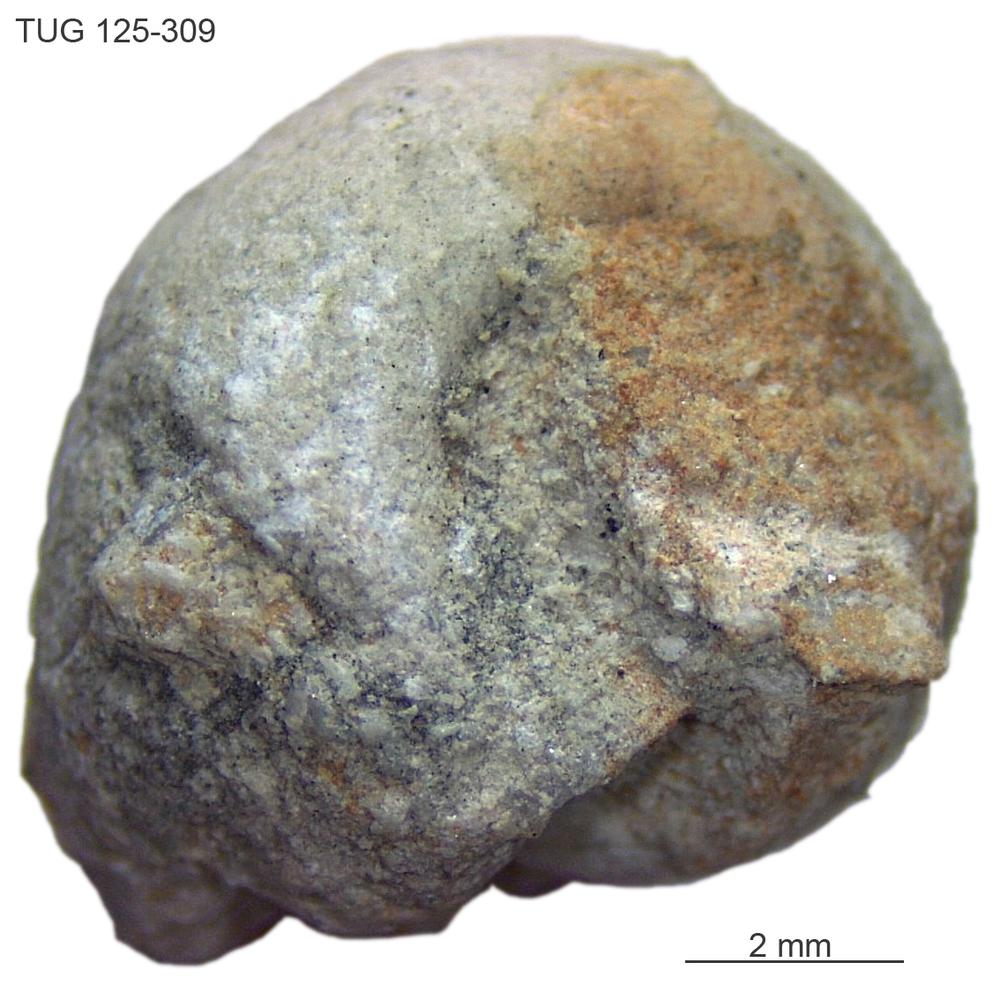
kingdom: Animalia
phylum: Mollusca
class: Gastropoda
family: Bucaniidae
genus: Bucania
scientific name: Bucania Bellerophon czekanowskii
